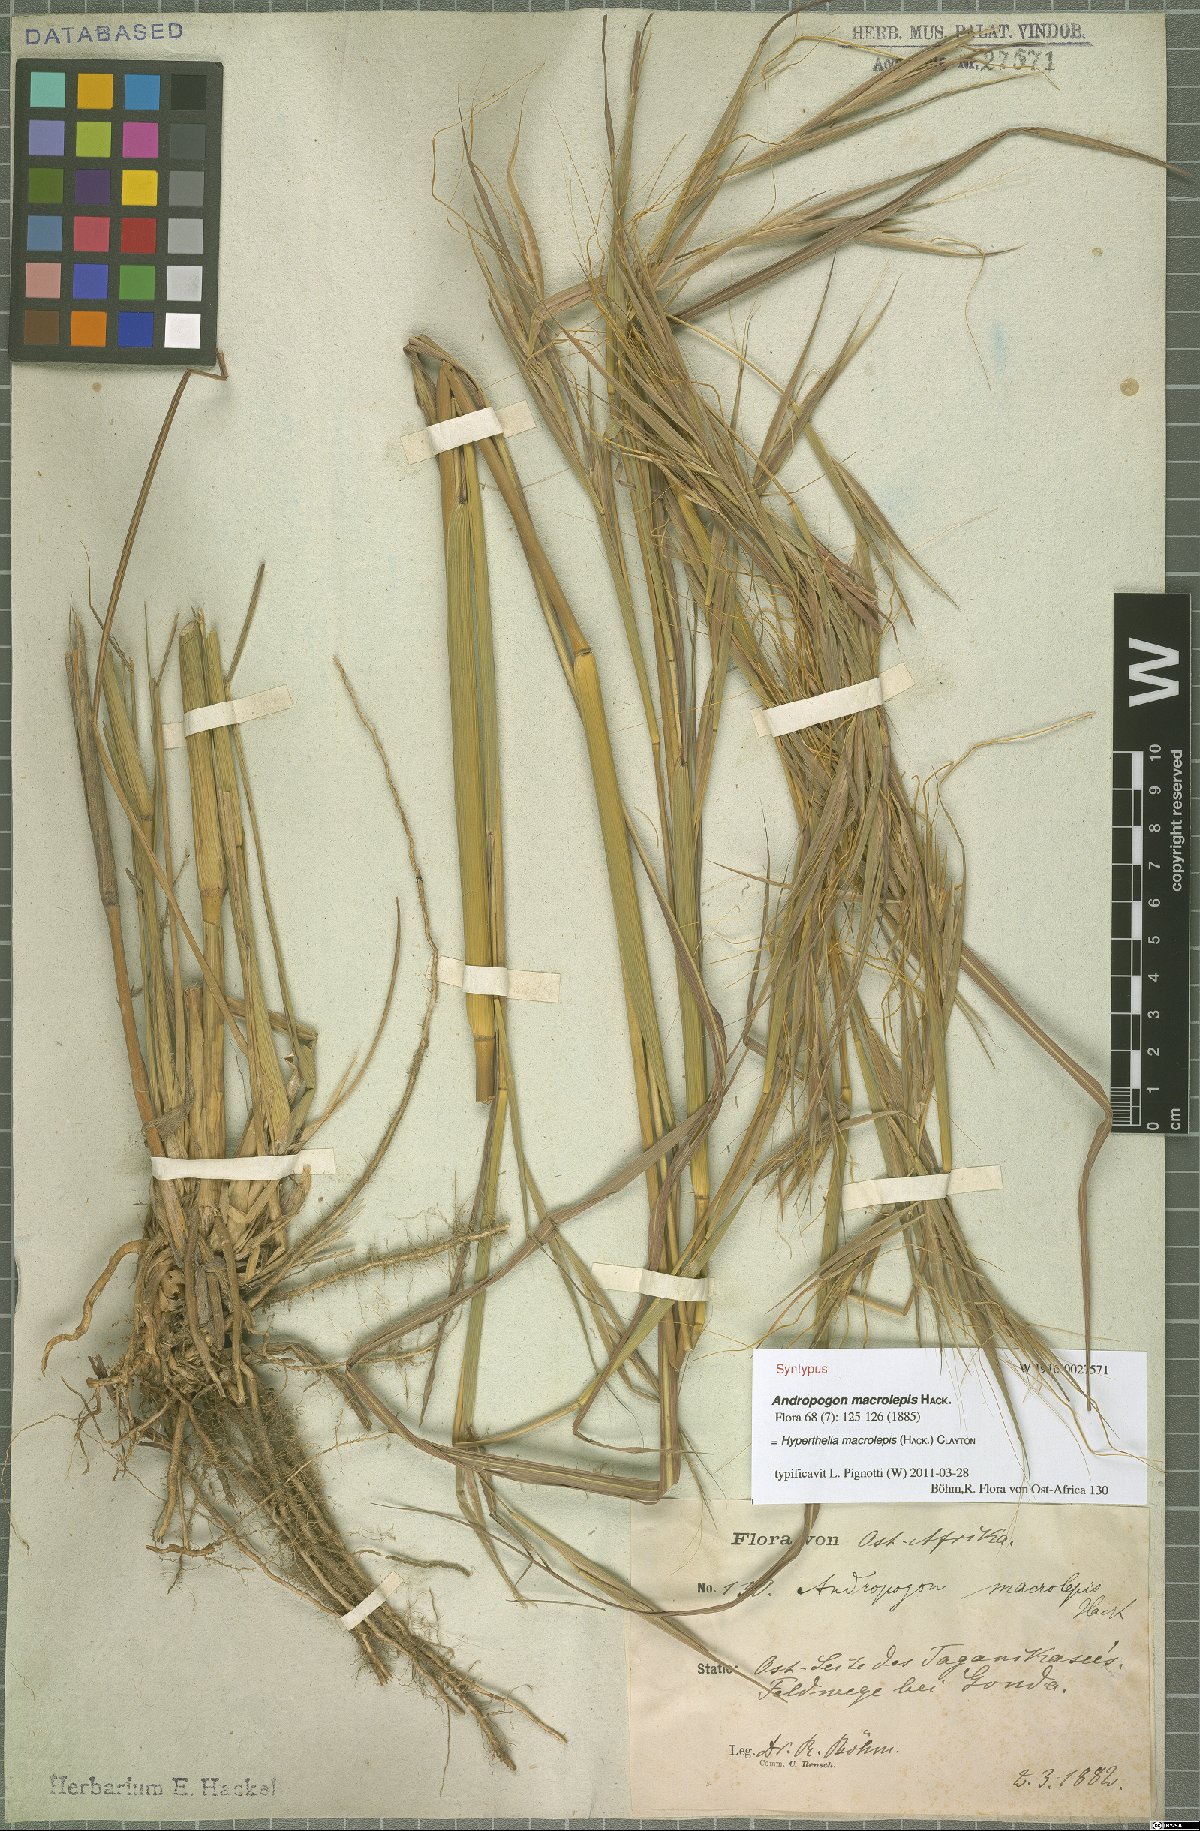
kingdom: Plantae
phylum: Tracheophyta
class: Liliopsida
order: Poales
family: Poaceae
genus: Hyperthelia
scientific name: Hyperthelia dissoluta
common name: Yellow thatching grass
